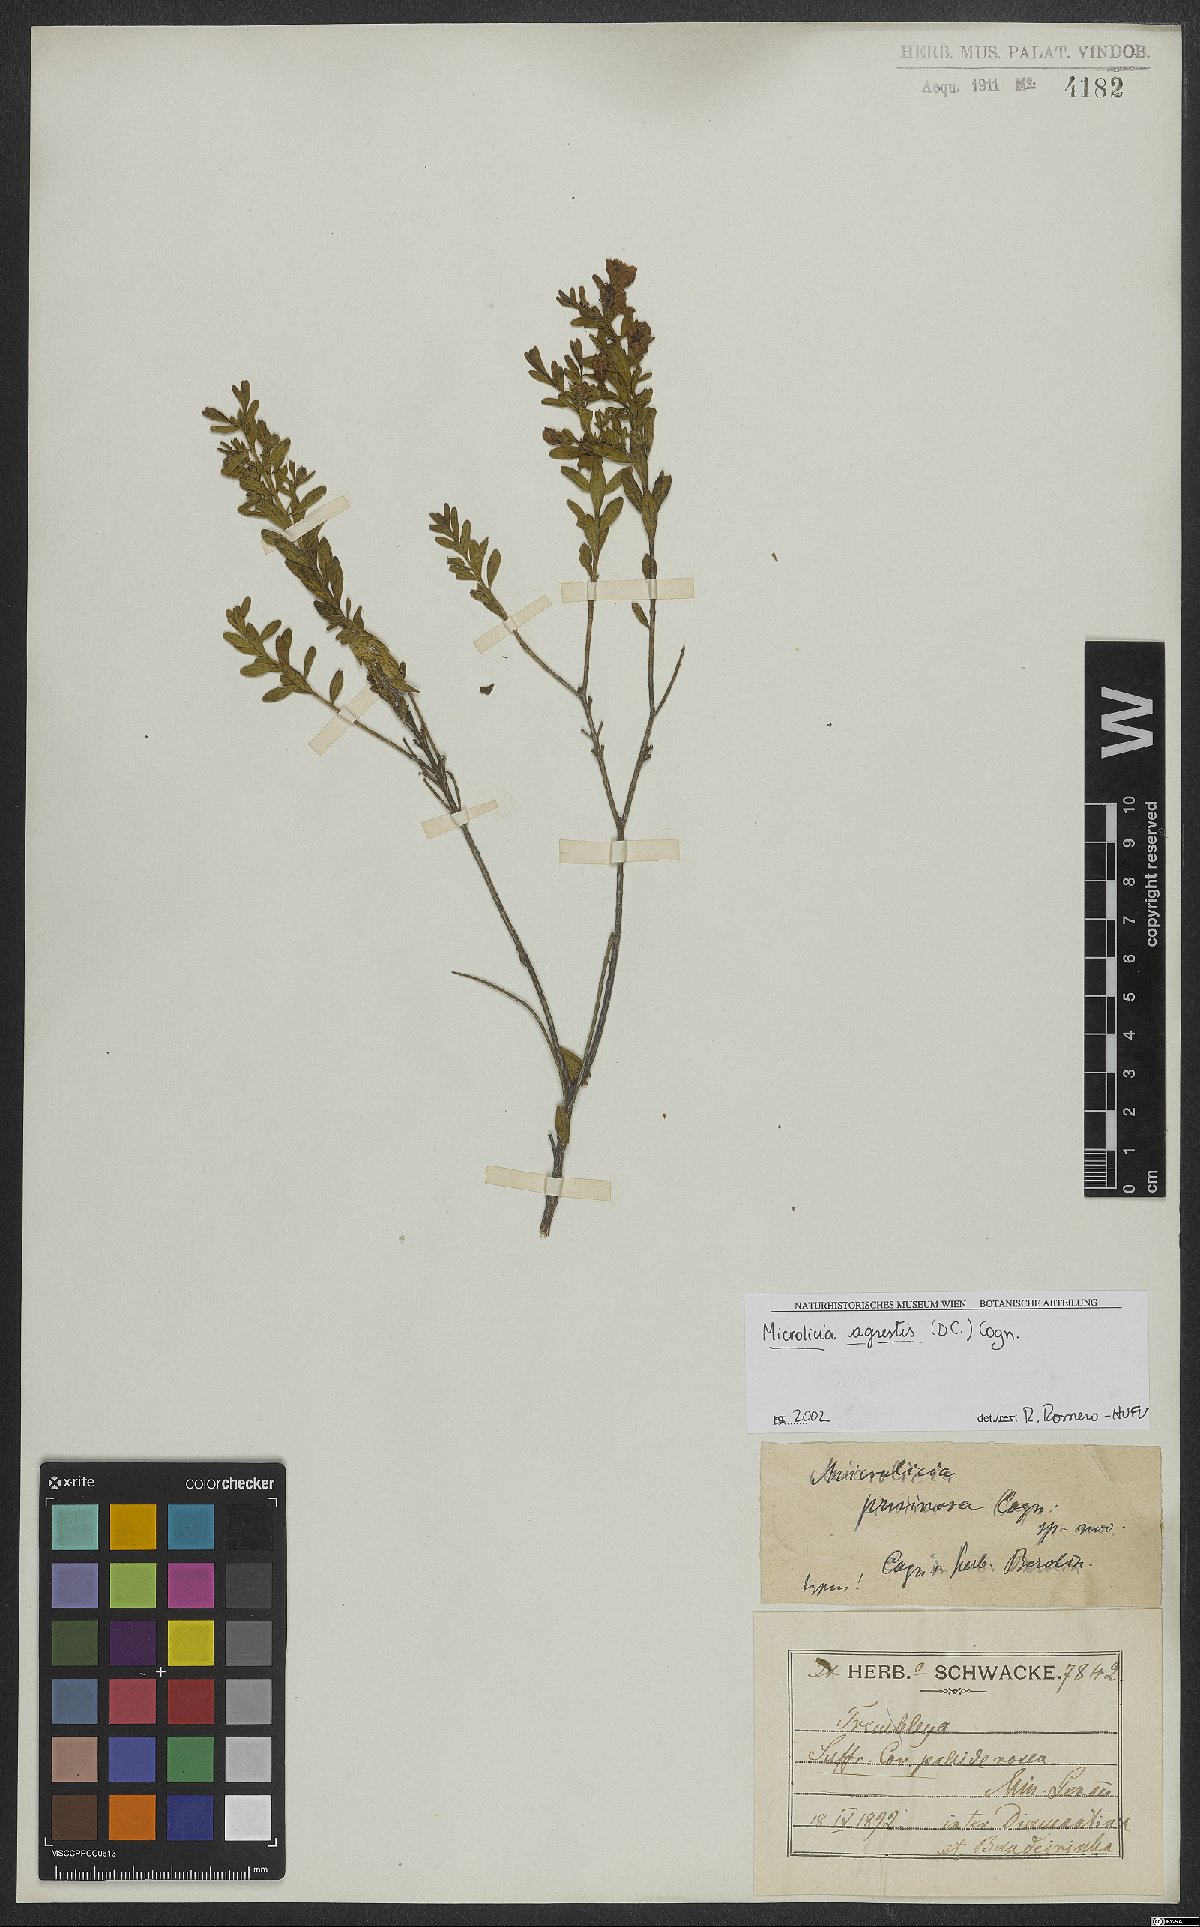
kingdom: Plantae
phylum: Tracheophyta
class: Magnoliopsida
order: Myrtales
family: Melastomataceae
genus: Microlicia
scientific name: Microlicia agrestis
